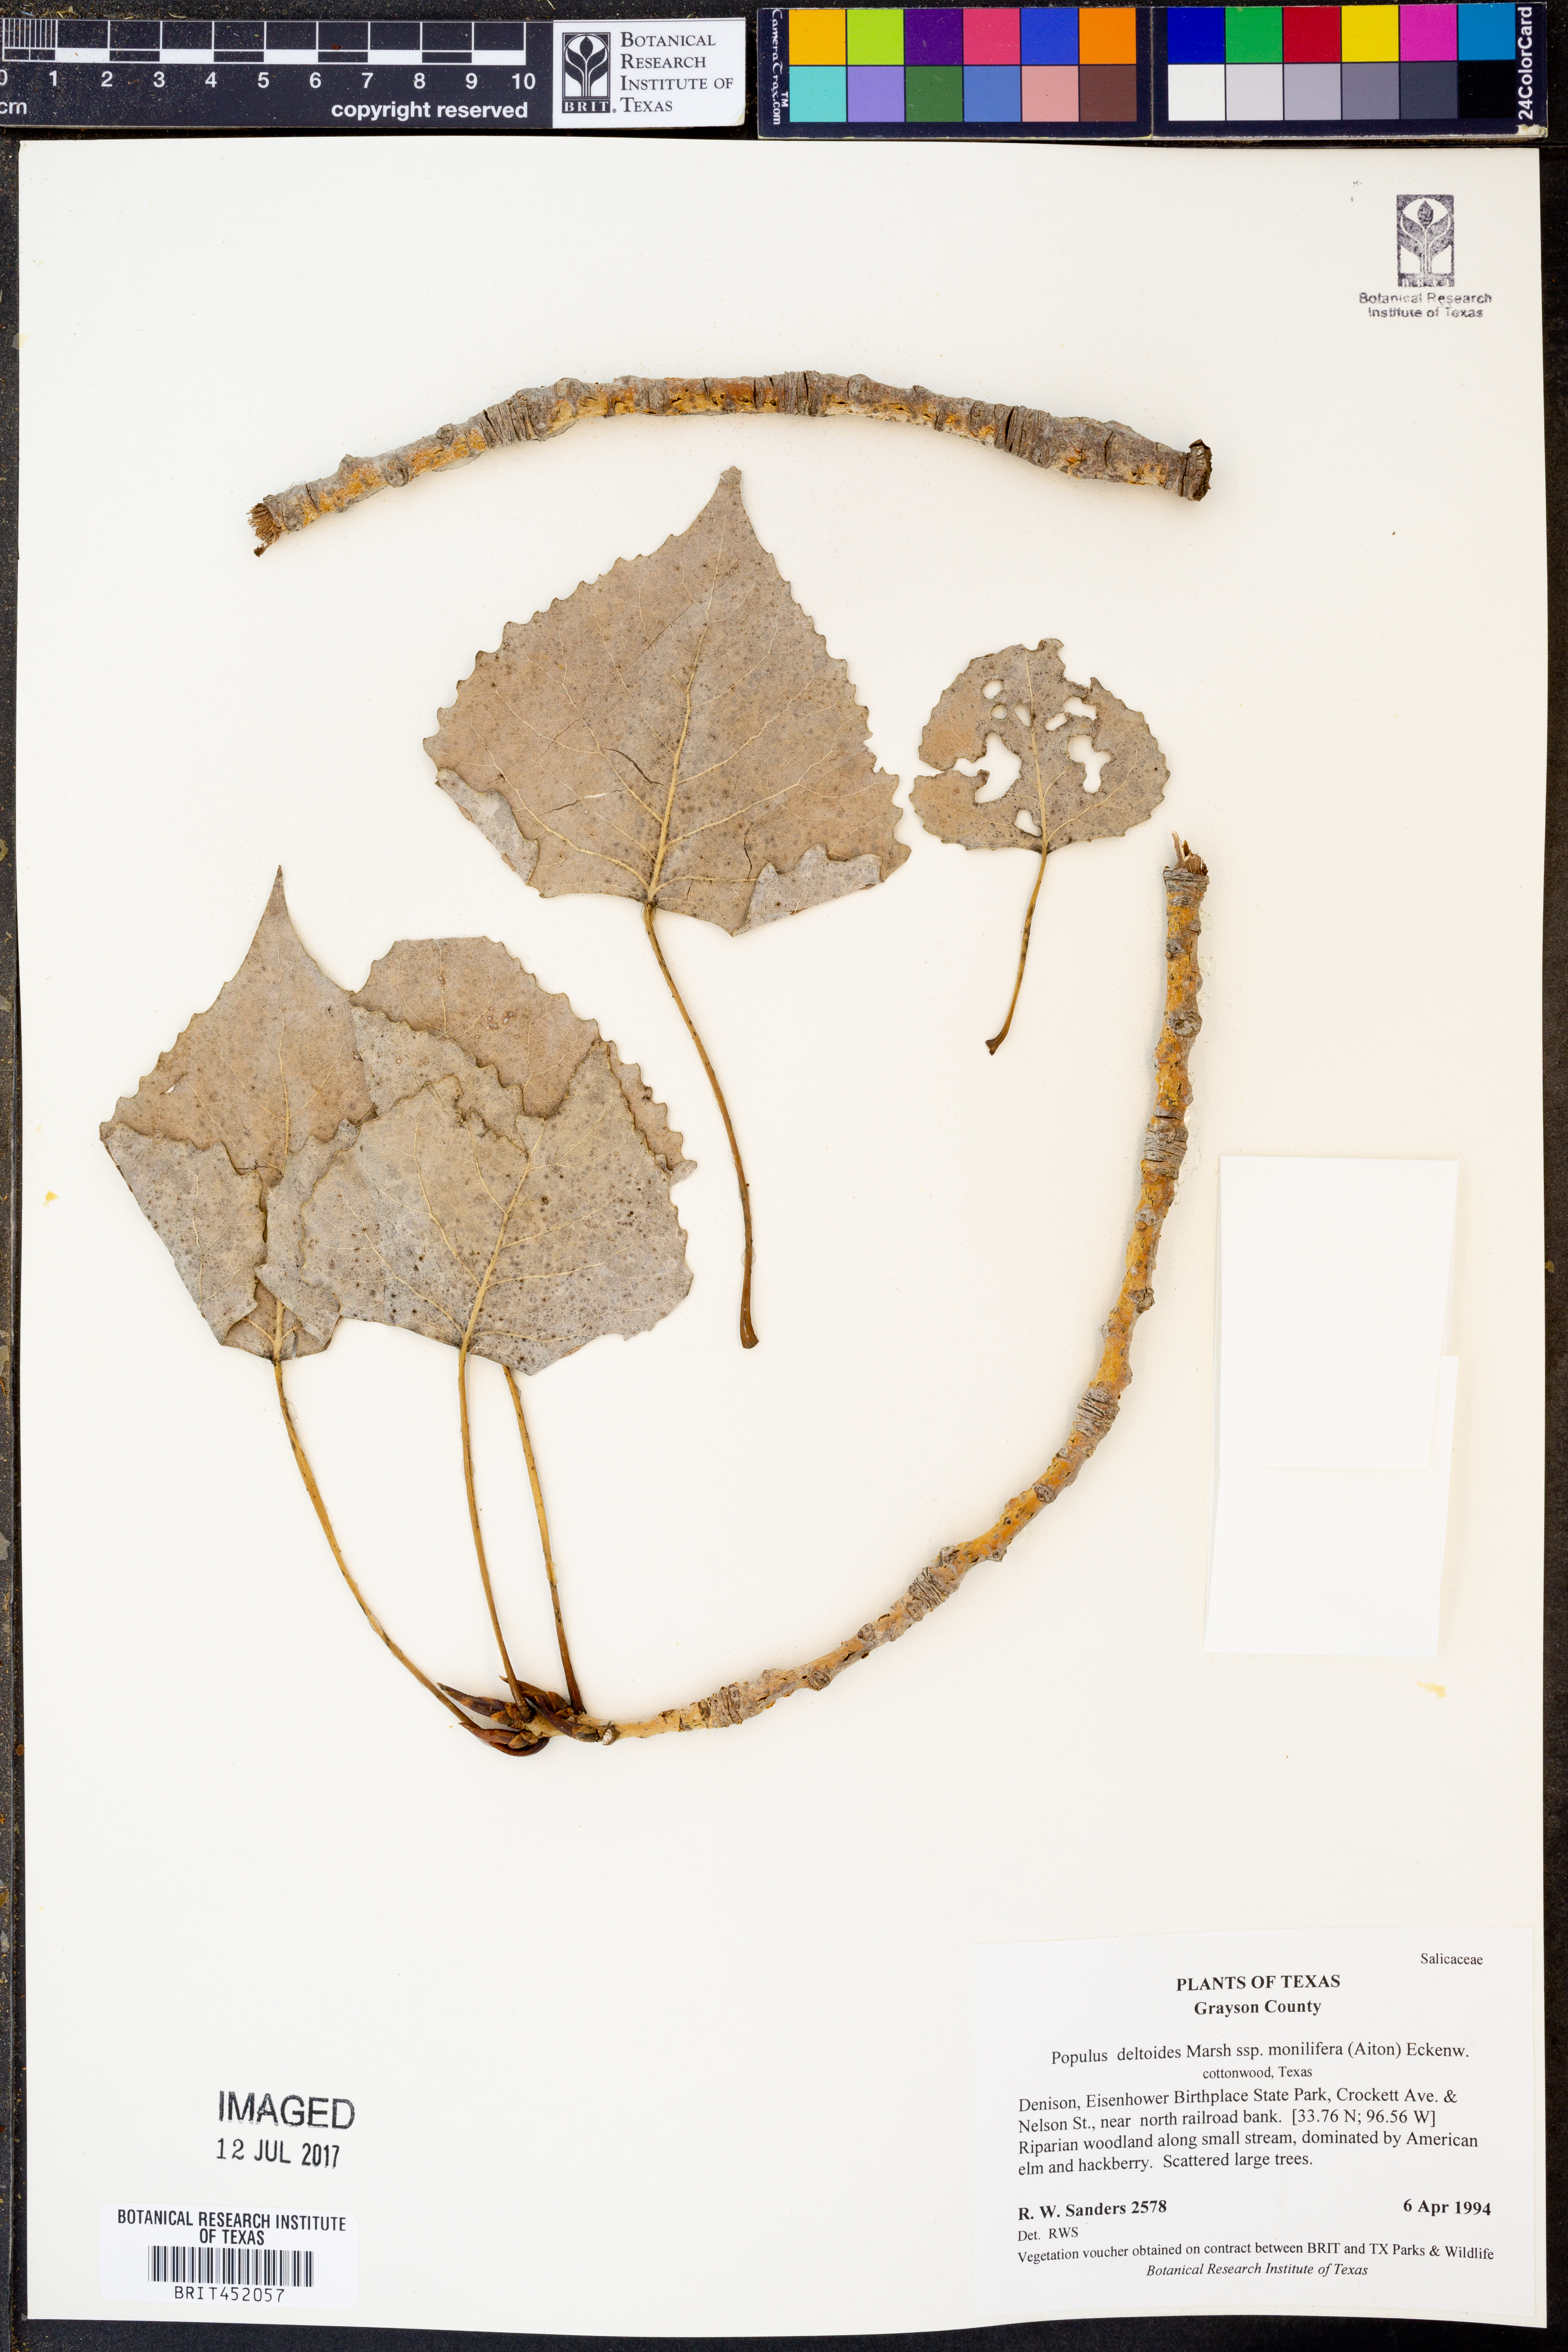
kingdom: Plantae
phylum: Tracheophyta
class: Magnoliopsida
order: Malpighiales
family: Salicaceae
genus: Populus
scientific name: Populus deltoides
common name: Eastern cottonwood
